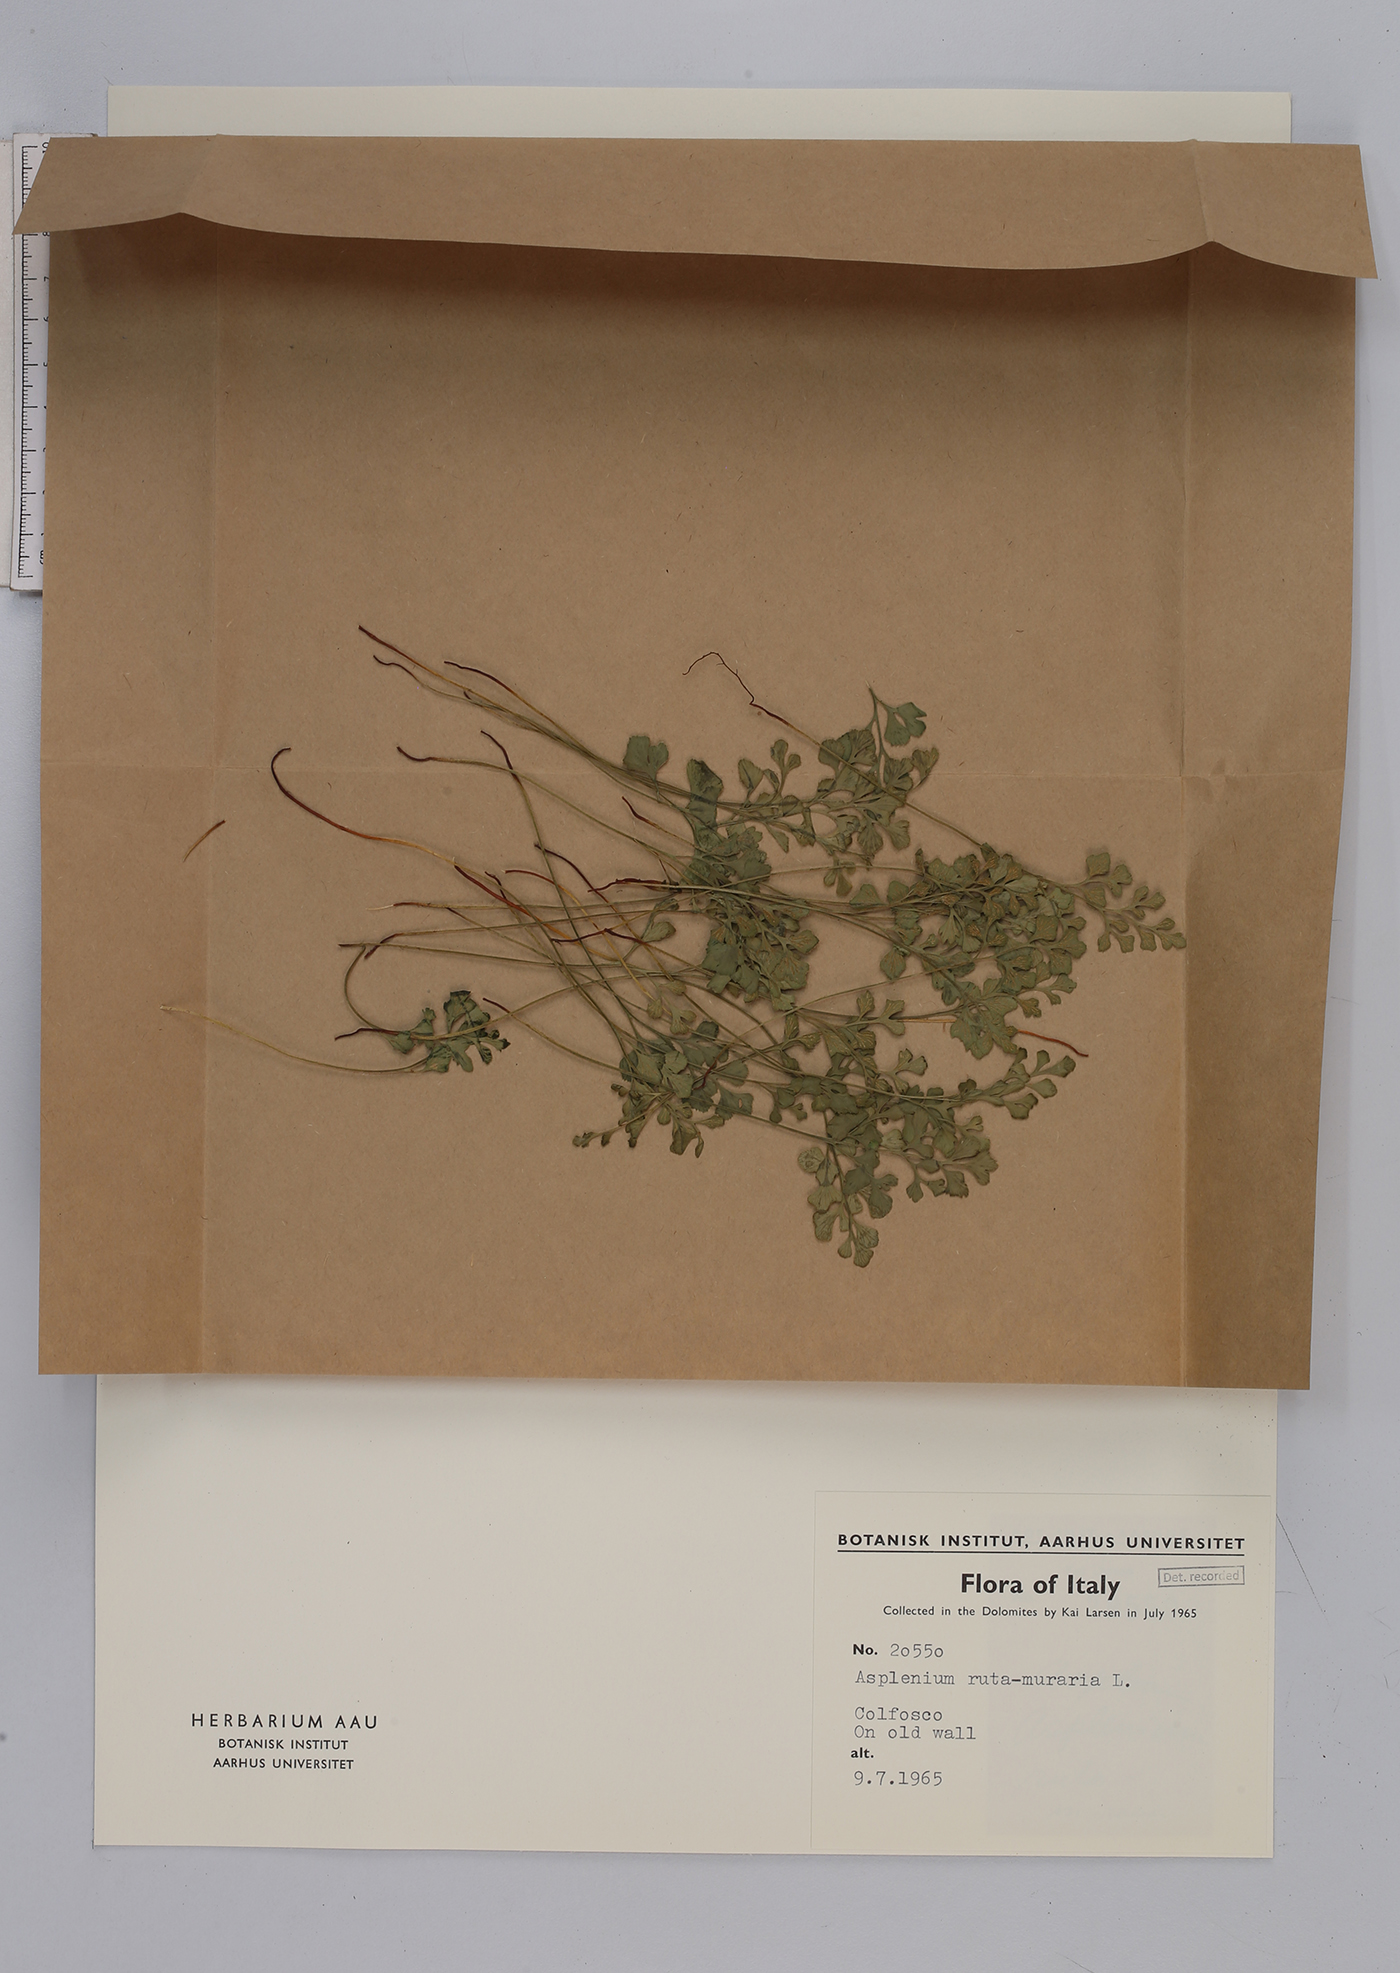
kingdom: Plantae
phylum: Tracheophyta
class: Polypodiopsida
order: Polypodiales
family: Aspleniaceae
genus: Asplenium
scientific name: Asplenium ruta-muraria
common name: Wall-rue
